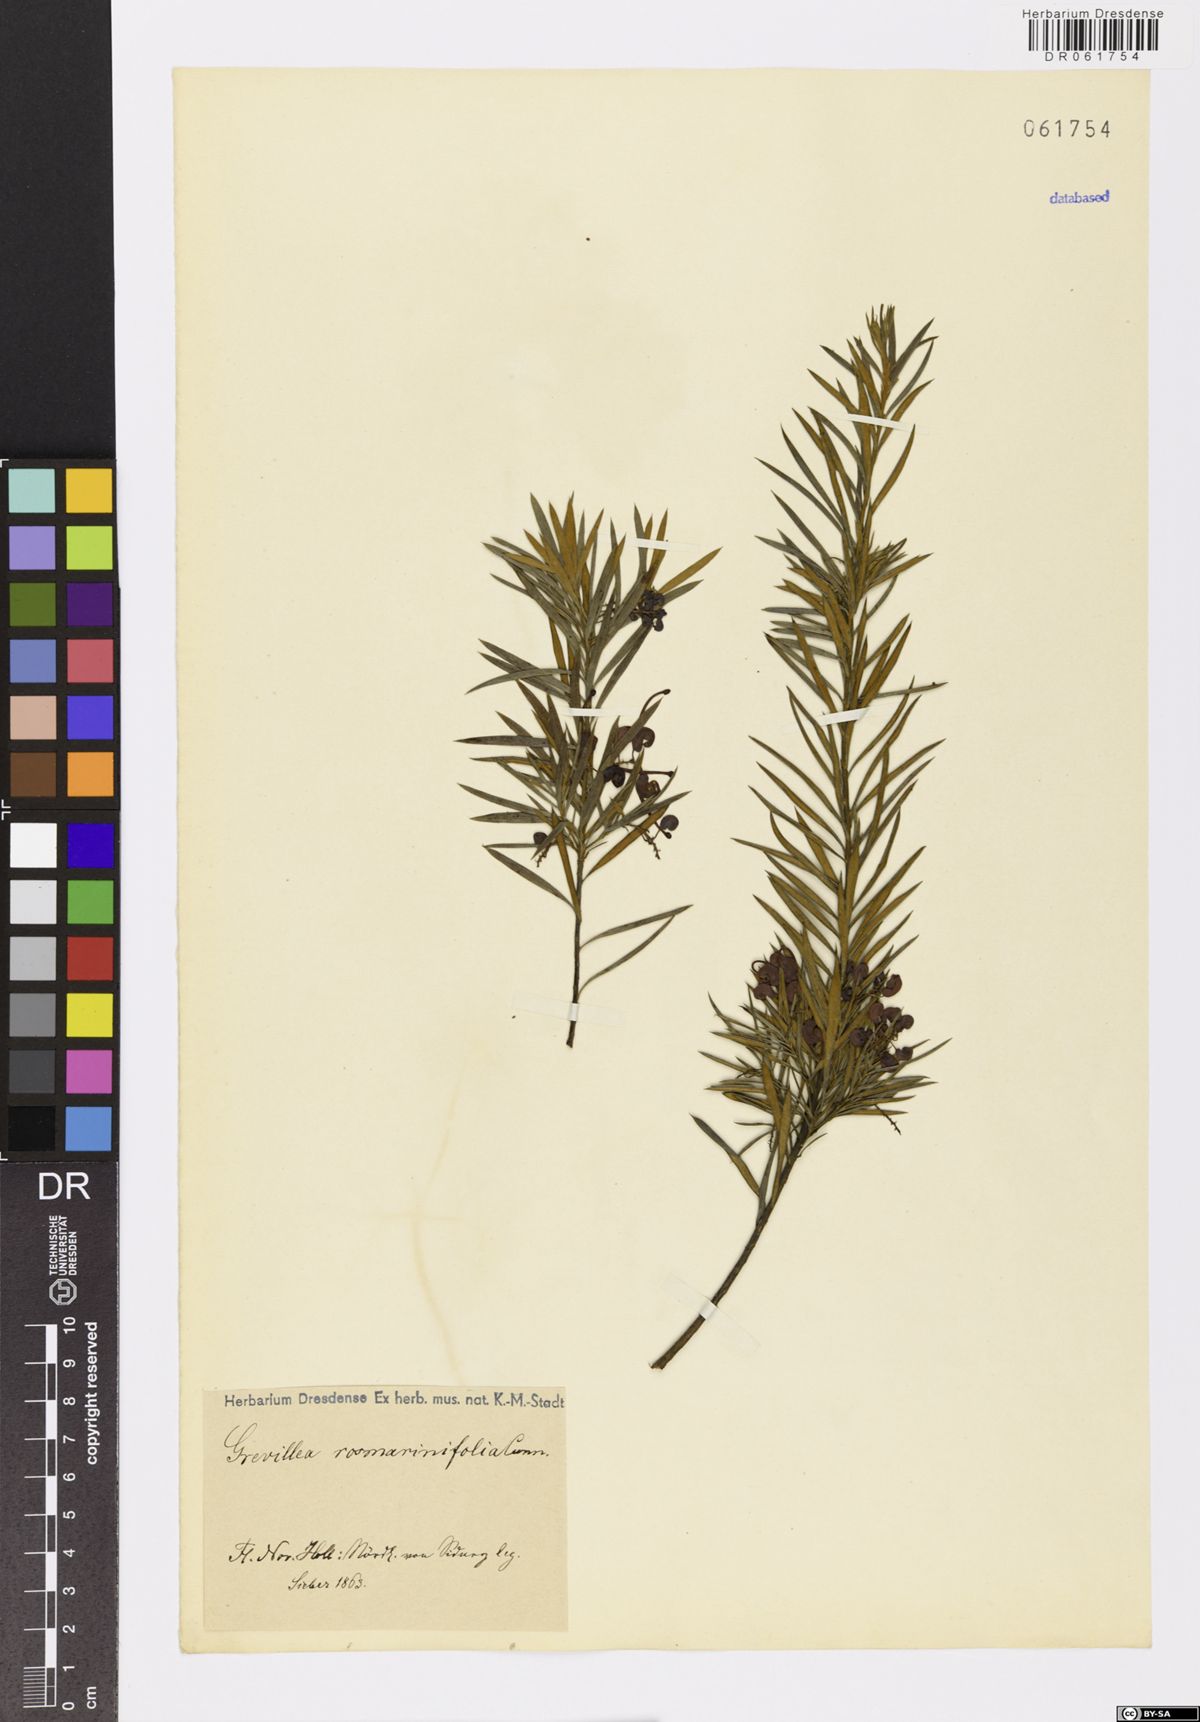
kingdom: Plantae
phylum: Tracheophyta
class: Magnoliopsida
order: Proteales
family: Proteaceae
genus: Grevillea
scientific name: Grevillea rosmarinifolia
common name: Rosemary grevillea
